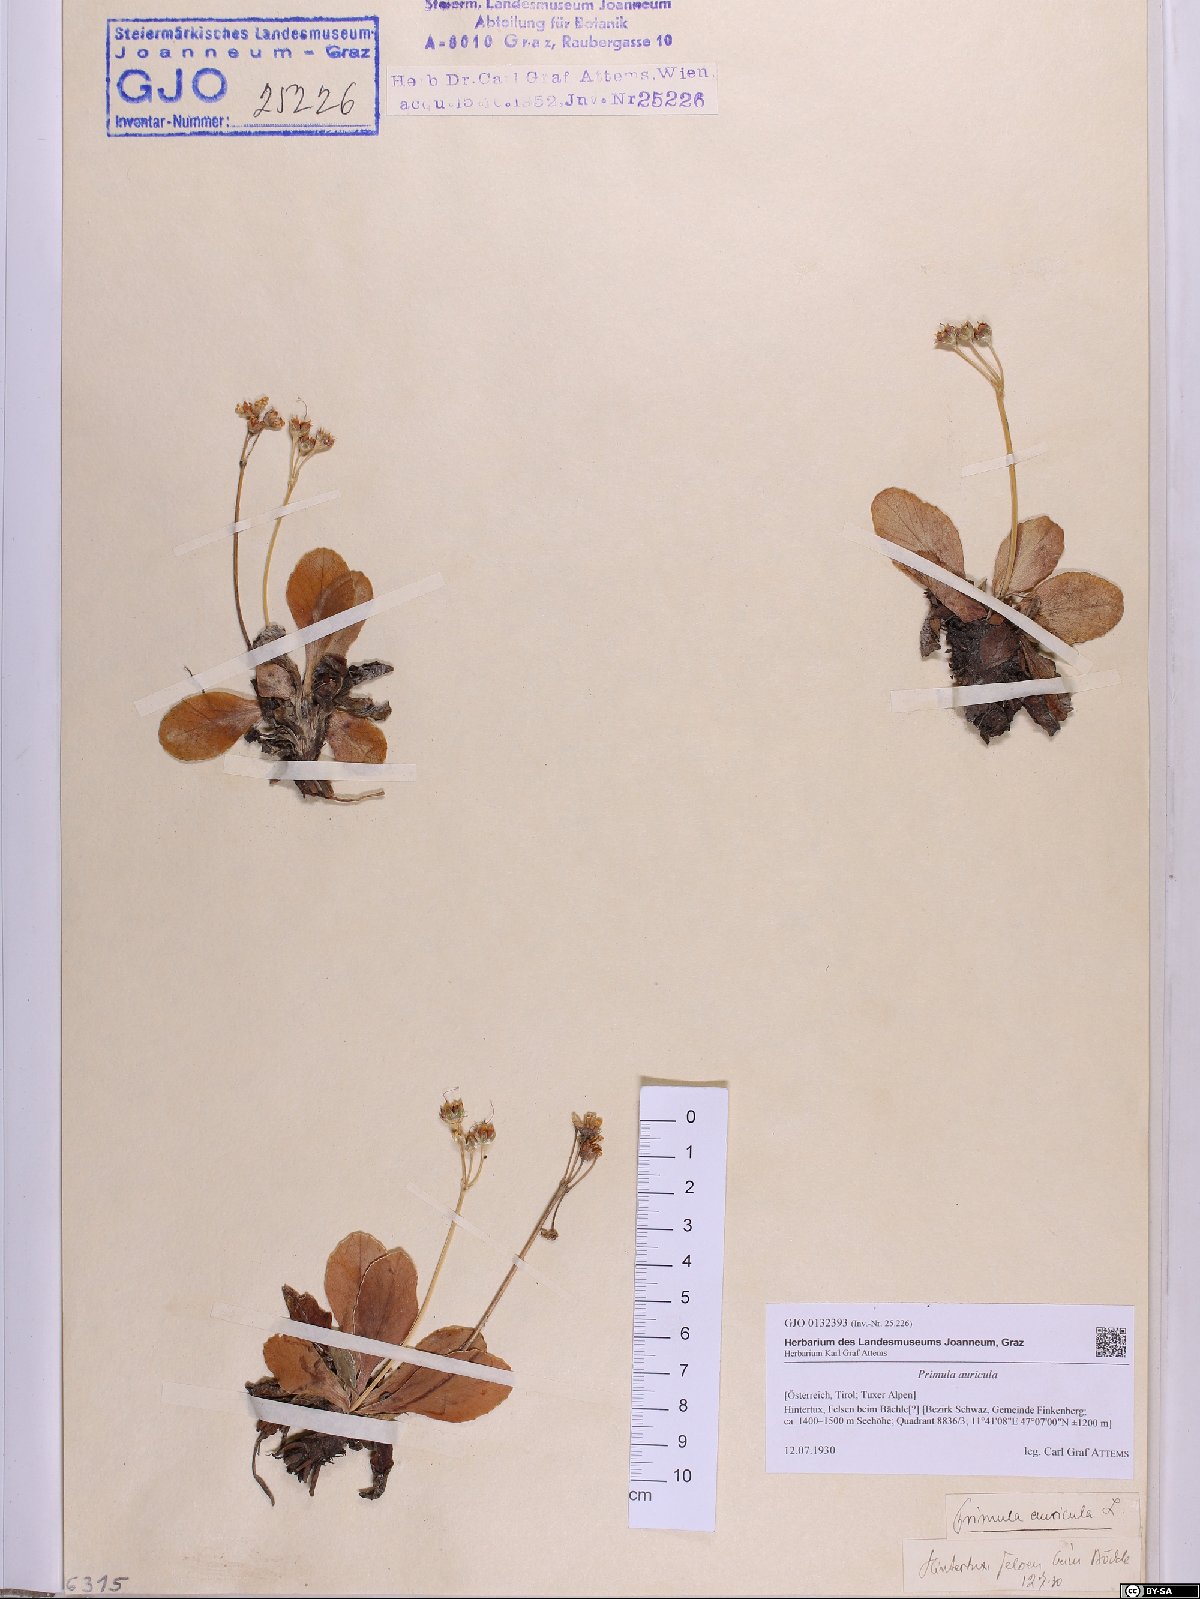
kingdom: Plantae
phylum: Tracheophyta
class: Magnoliopsida
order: Ericales
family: Primulaceae
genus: Primula
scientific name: Primula auricula
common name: Auricula
